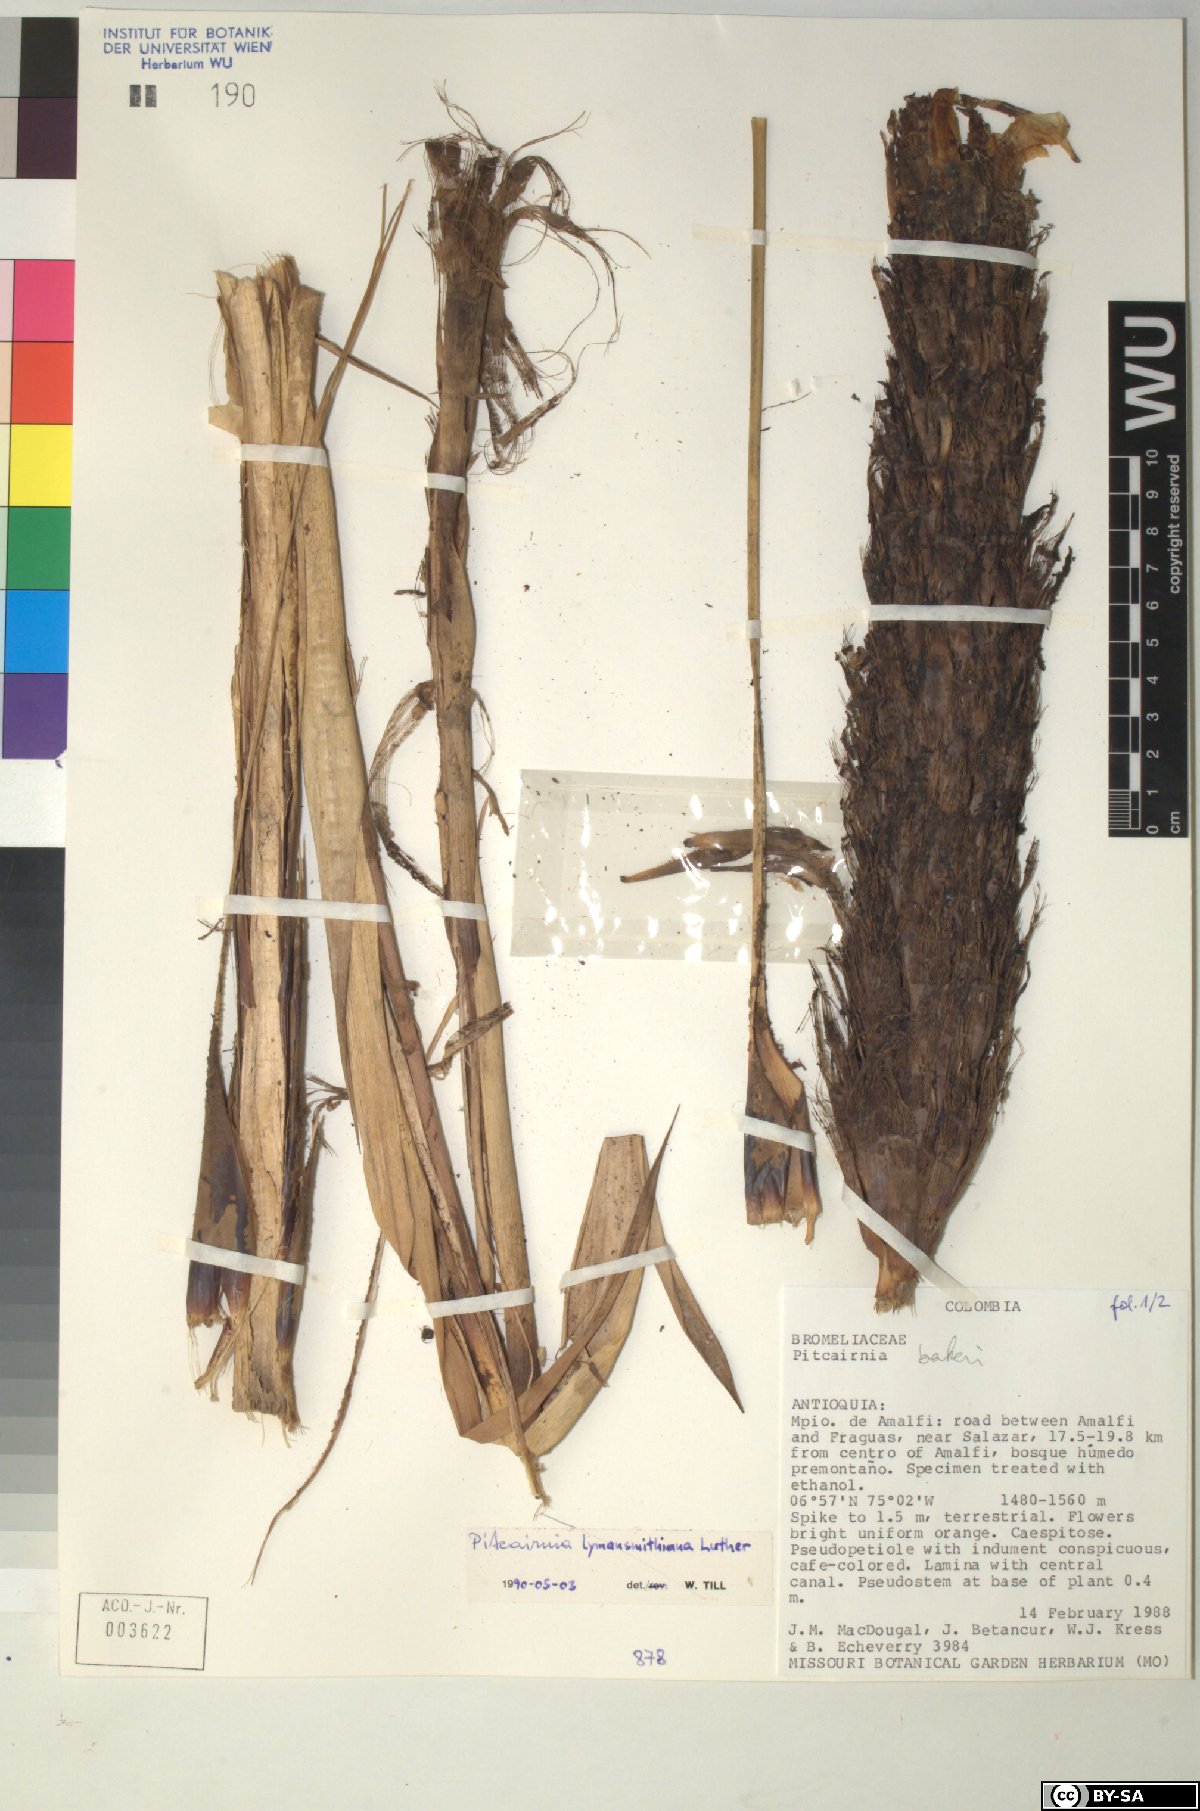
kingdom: Plantae
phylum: Tracheophyta
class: Liliopsida
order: Poales
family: Bromeliaceae
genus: Pitcairnia
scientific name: Pitcairnia
